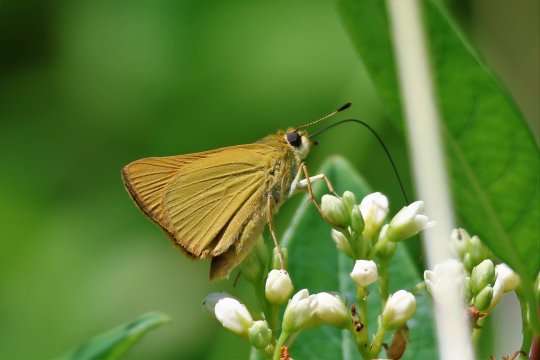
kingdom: Animalia
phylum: Arthropoda
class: Insecta
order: Lepidoptera
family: Hesperiidae
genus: Atrytone
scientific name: Atrytone delaware
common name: Delaware Skipper
